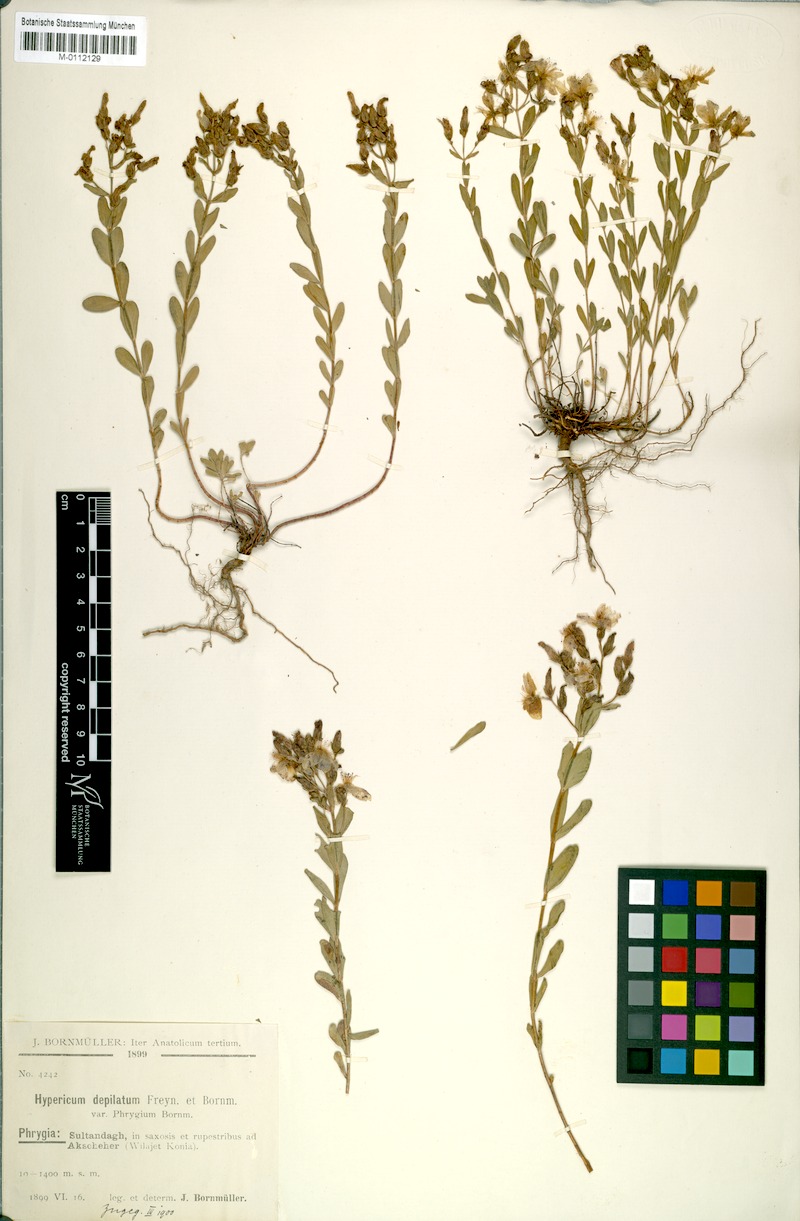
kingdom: Plantae
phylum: Tracheophyta
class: Magnoliopsida
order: Malpighiales
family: Hypericaceae
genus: Hypericum
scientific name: Hypericum orientale
